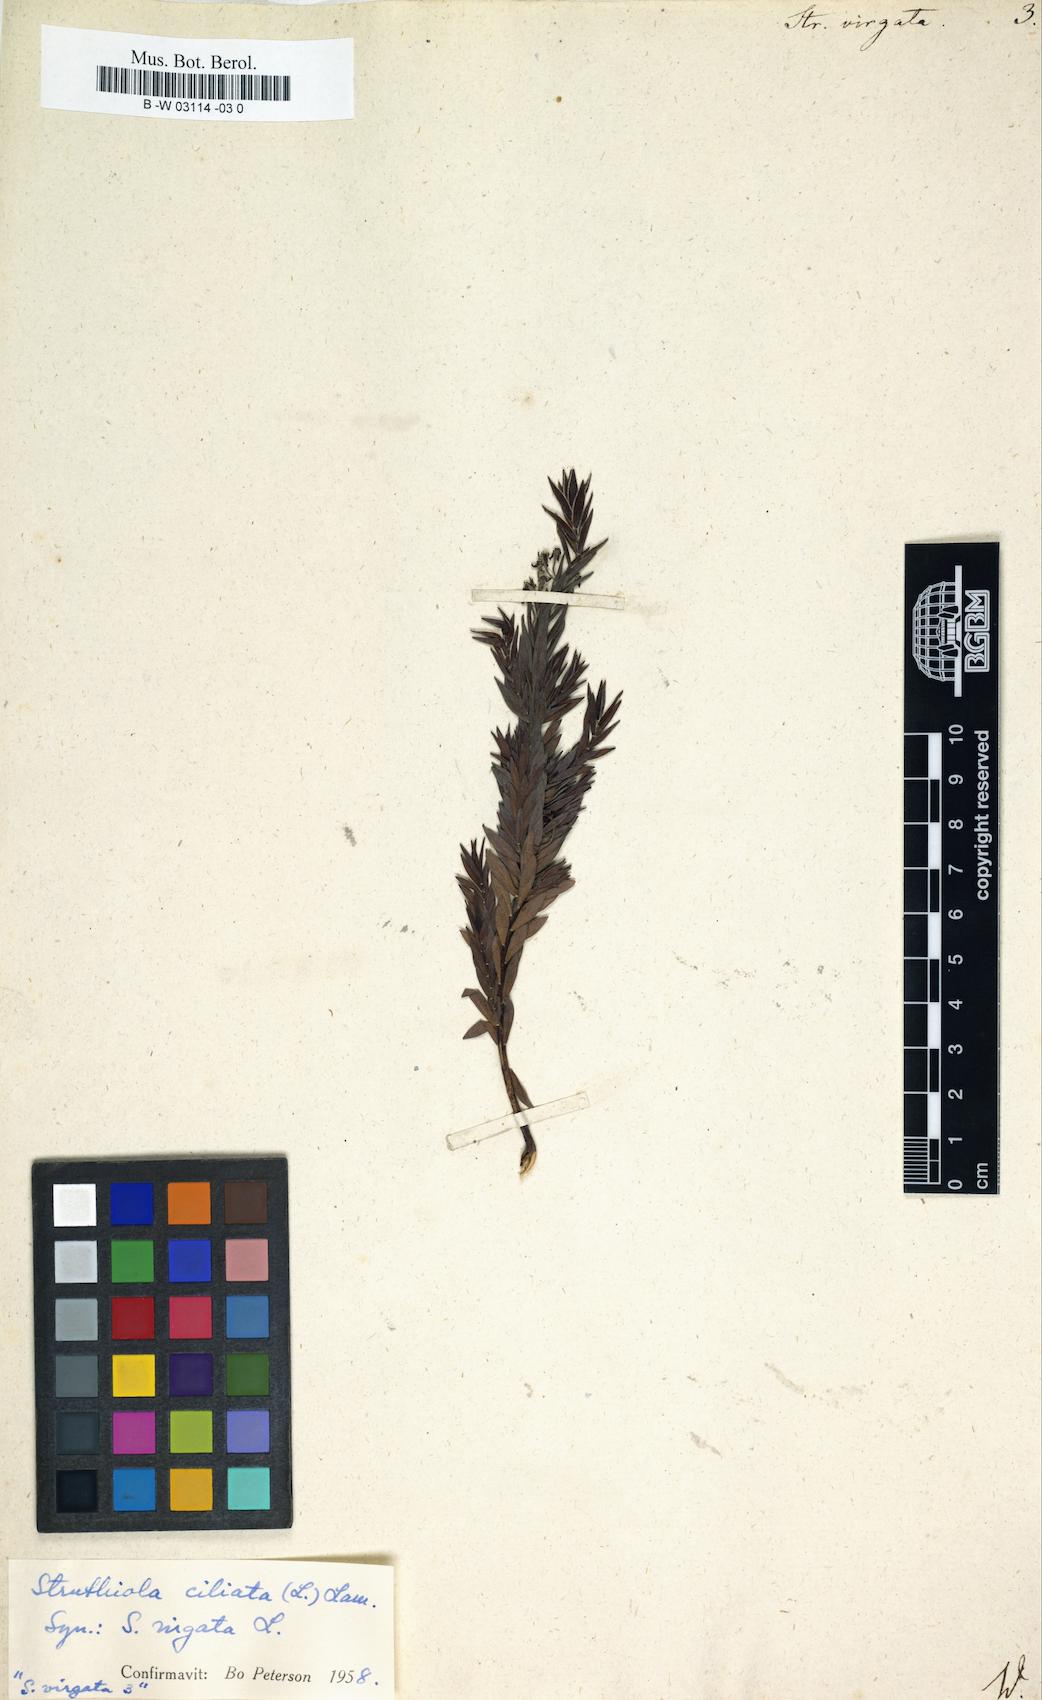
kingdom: Plantae
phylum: Tracheophyta
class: Magnoliopsida
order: Malvales
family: Thymelaeaceae
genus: Struthiola
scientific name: Struthiola ciliata
